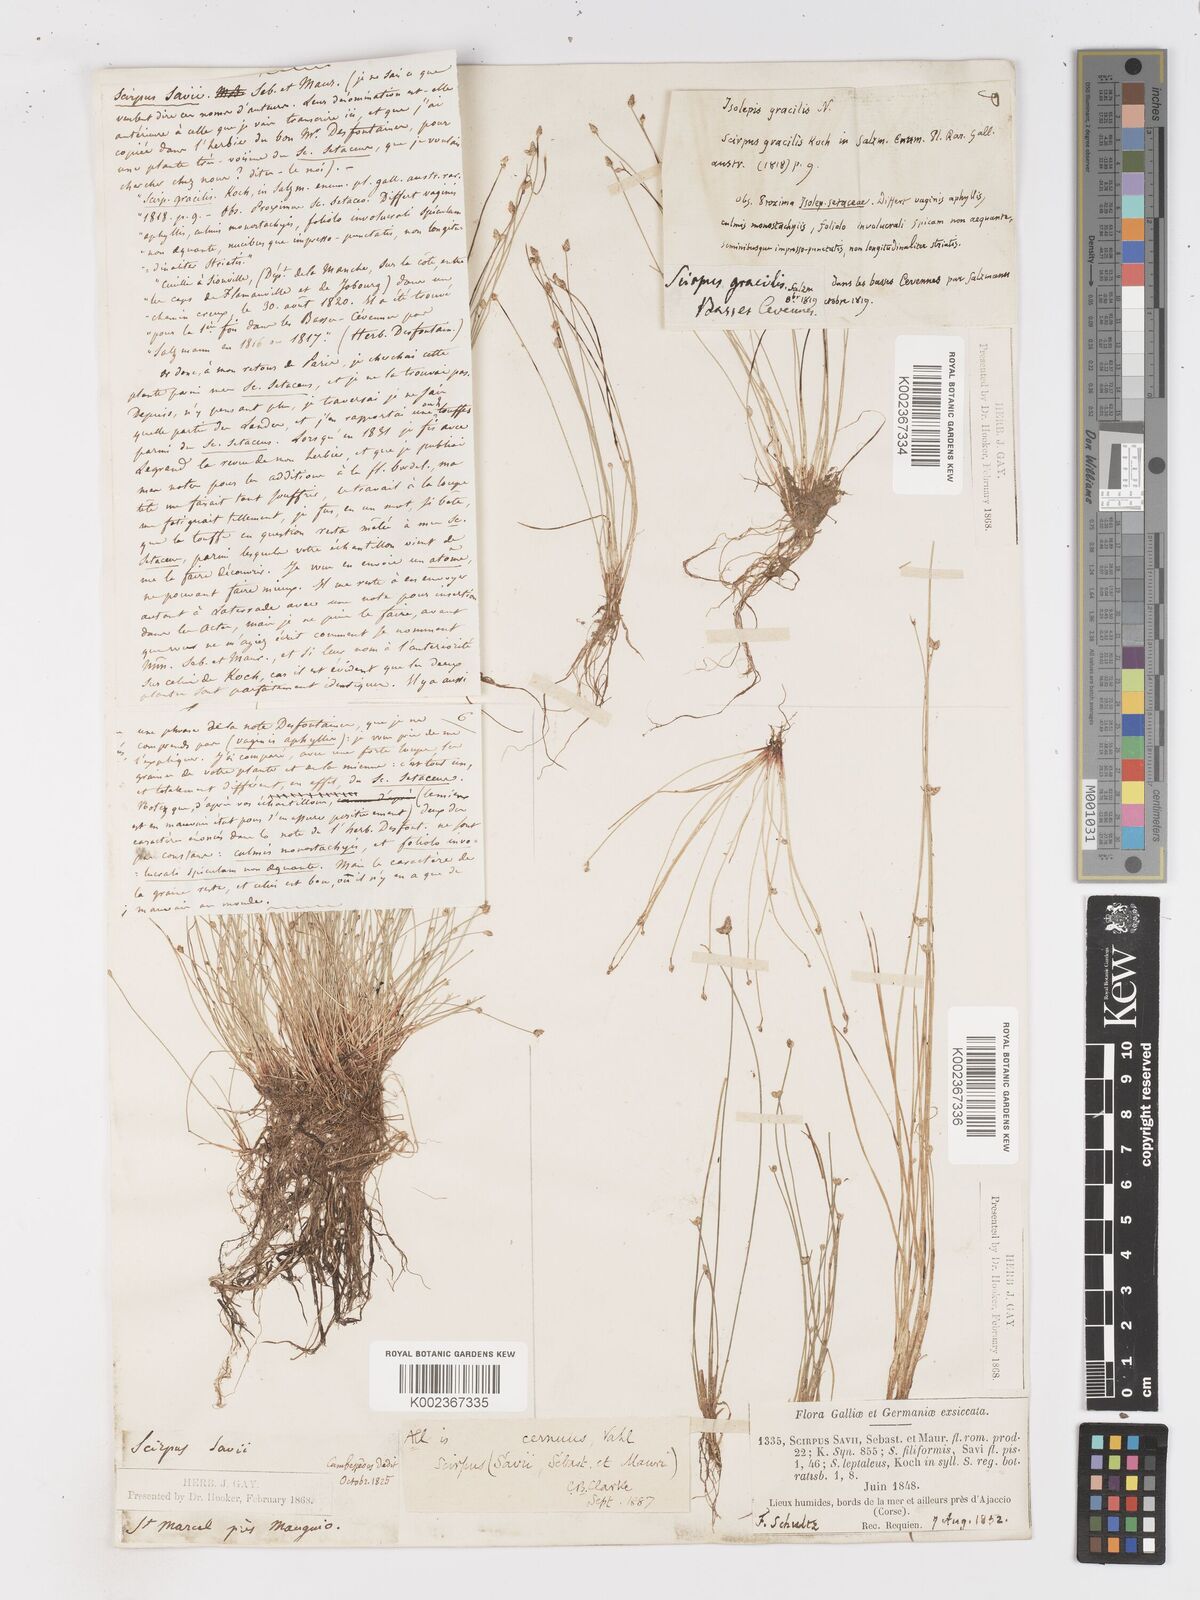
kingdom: Plantae
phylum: Tracheophyta
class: Liliopsida
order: Poales
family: Cyperaceae
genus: Isolepis
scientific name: Isolepis cernua
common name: Slender club-rush
